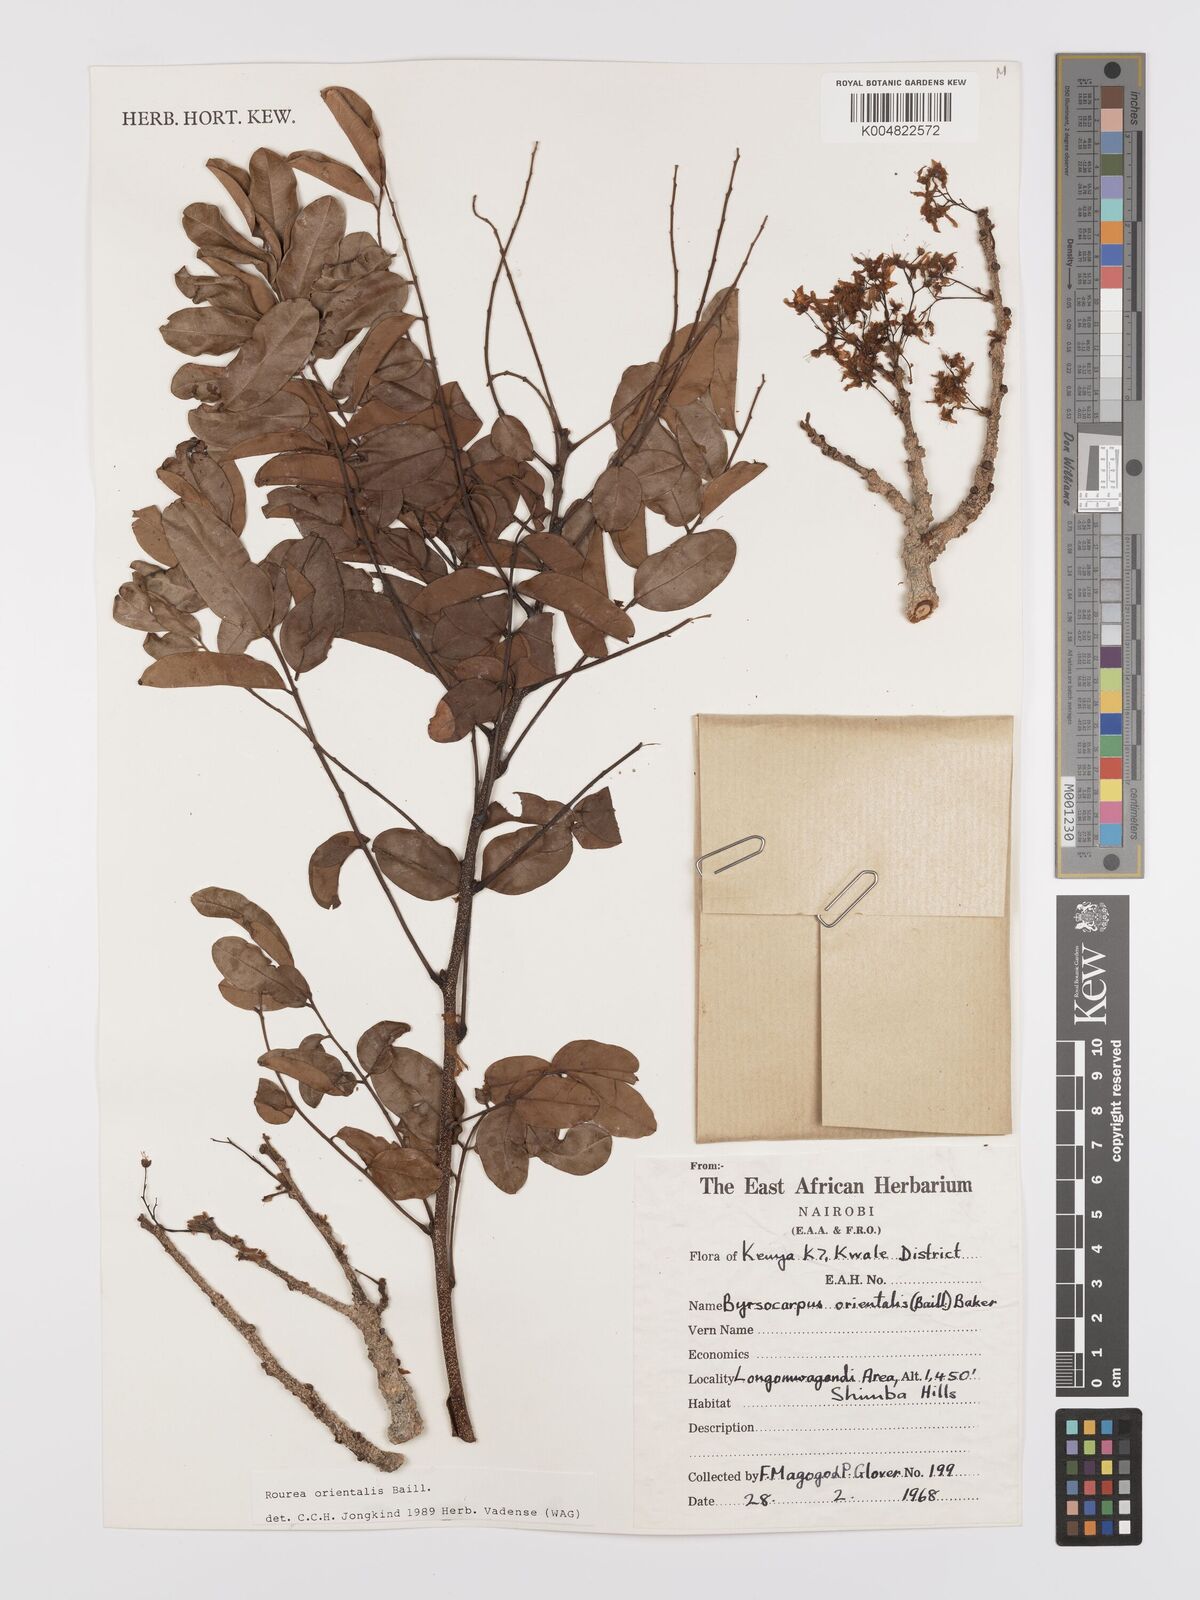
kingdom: Plantae
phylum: Tracheophyta
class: Magnoliopsida
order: Oxalidales
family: Connaraceae
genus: Rourea
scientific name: Rourea orientalis
